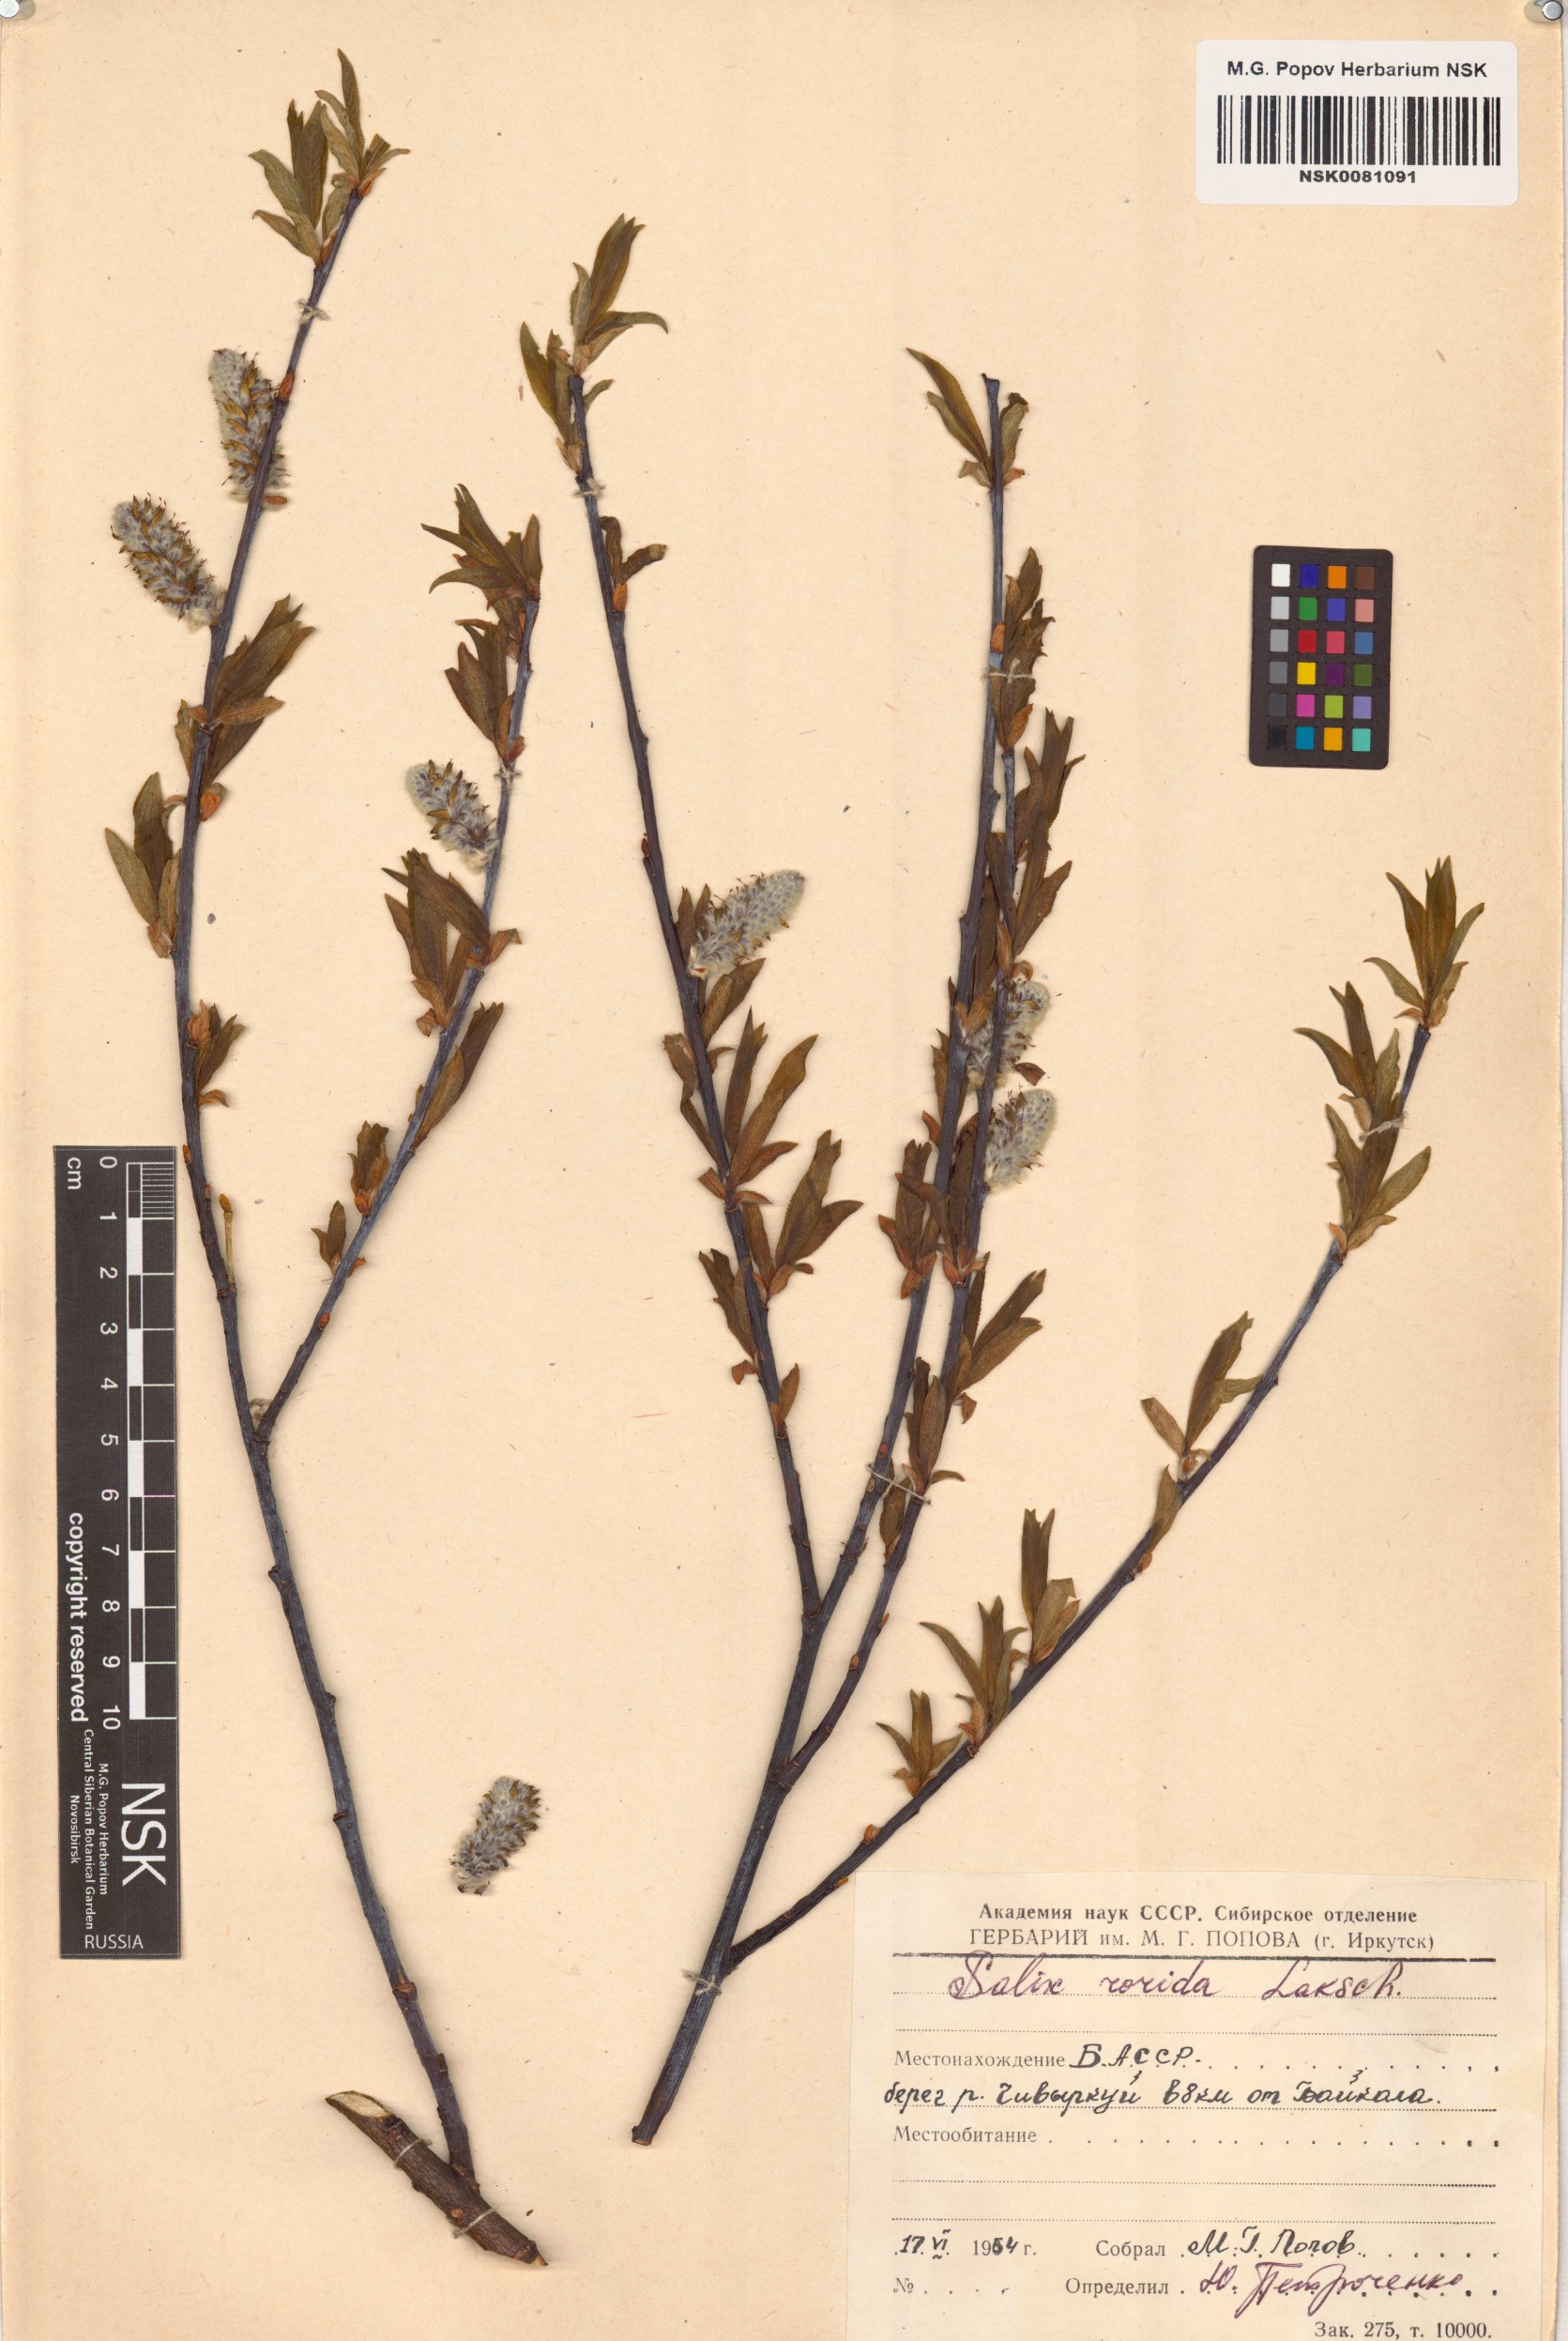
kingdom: Plantae
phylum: Tracheophyta
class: Magnoliopsida
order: Malpighiales
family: Salicaceae
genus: Salix
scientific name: Salix rorida
